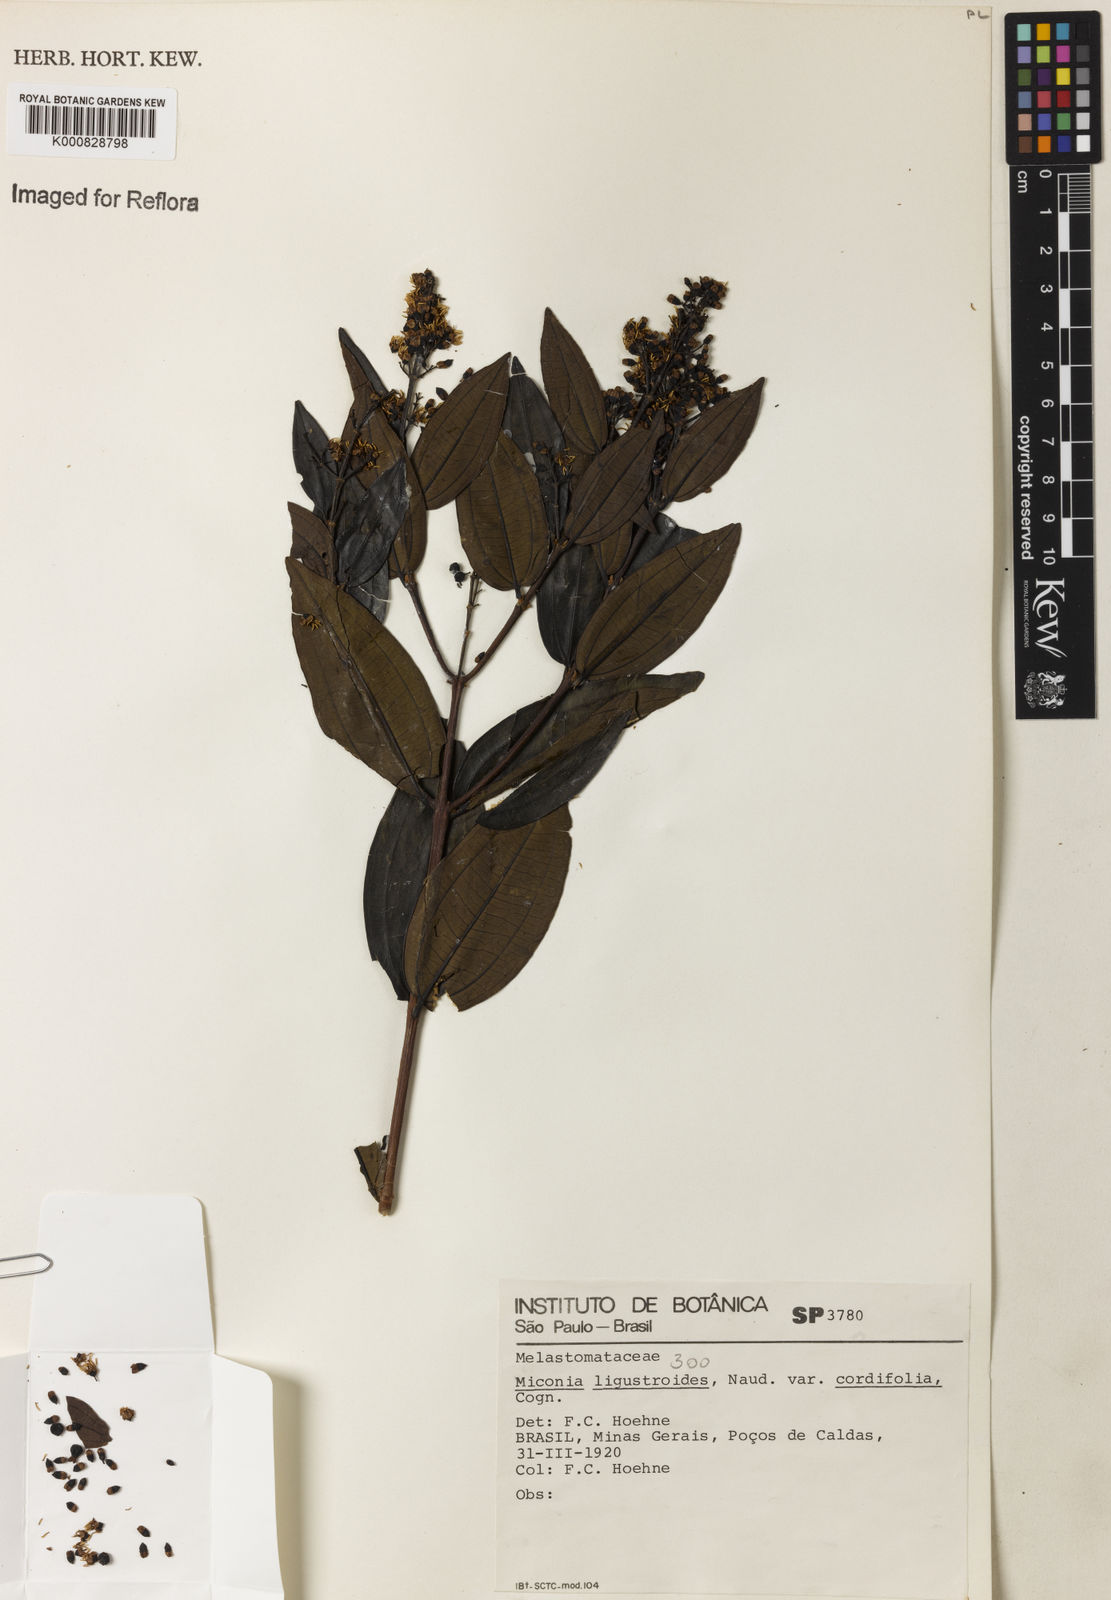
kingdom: Plantae
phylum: Tracheophyta
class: Magnoliopsida
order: Myrtales
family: Melastomataceae
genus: Miconia
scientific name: Miconia ligustroides
